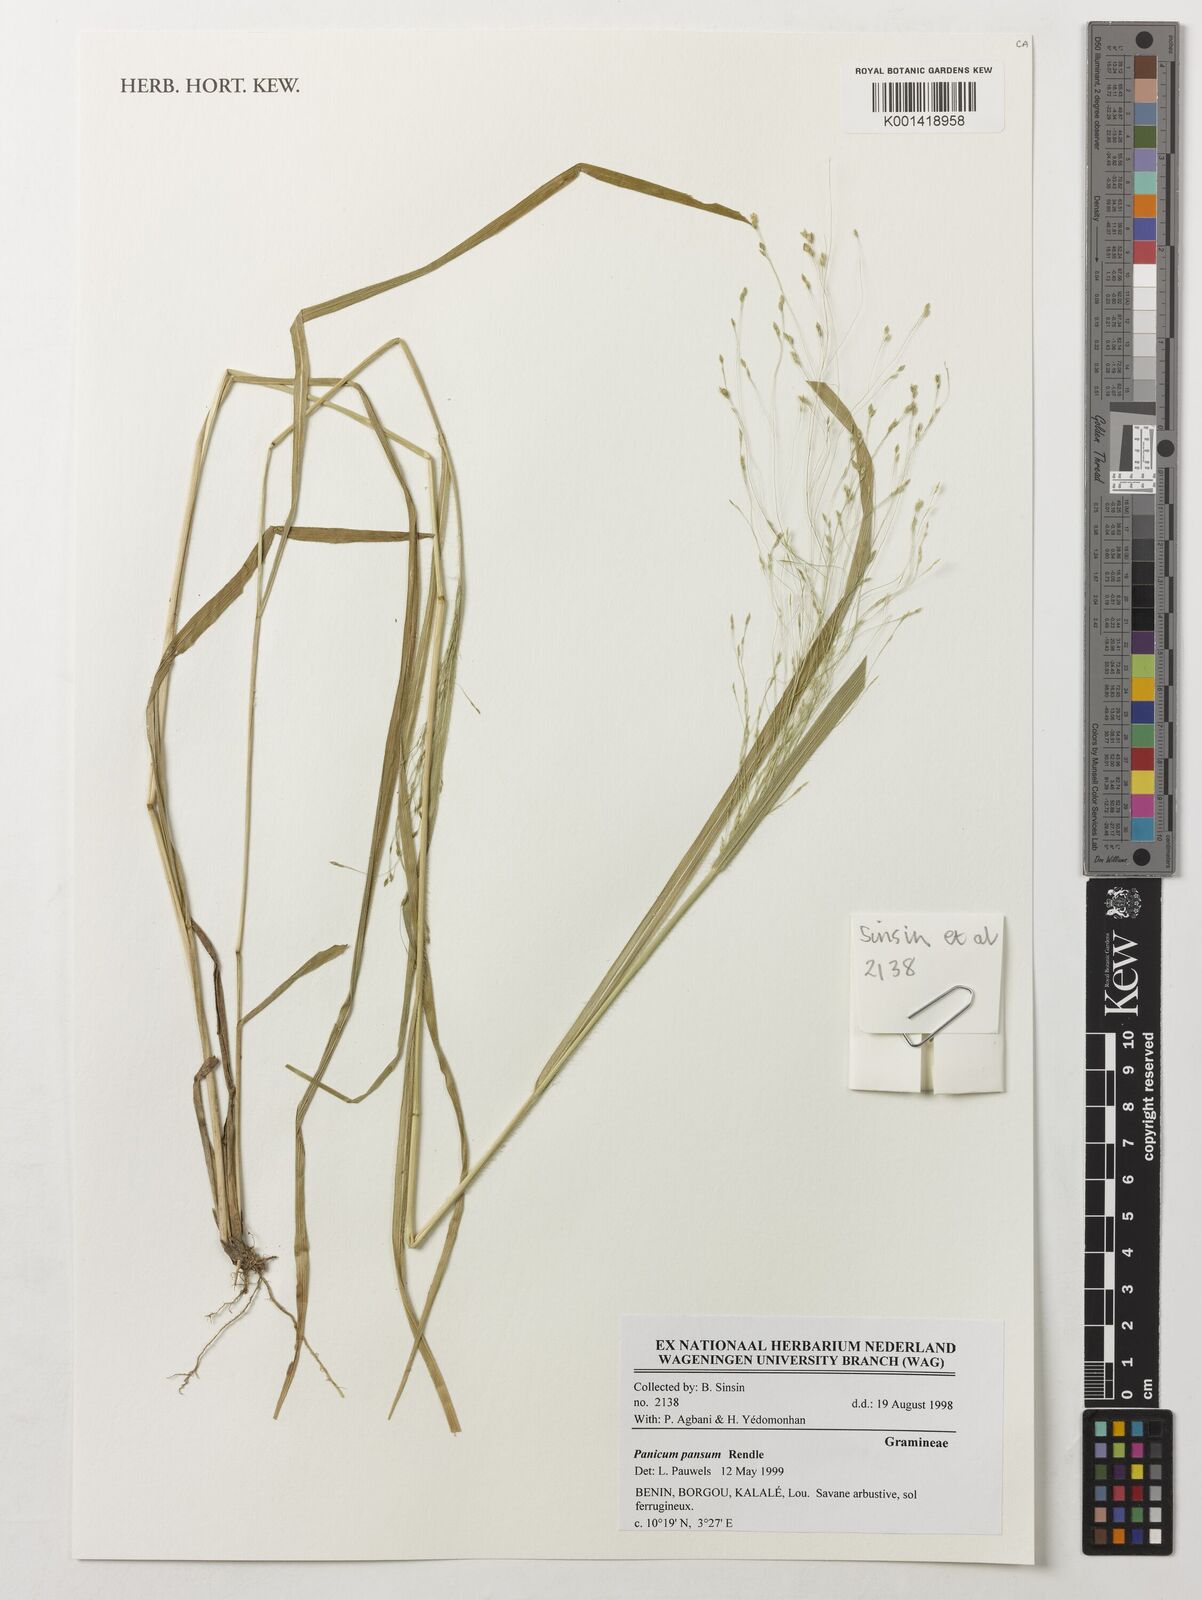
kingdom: Plantae
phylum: Tracheophyta
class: Liliopsida
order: Poales
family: Poaceae
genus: Panicum
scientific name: Panicum pansum
